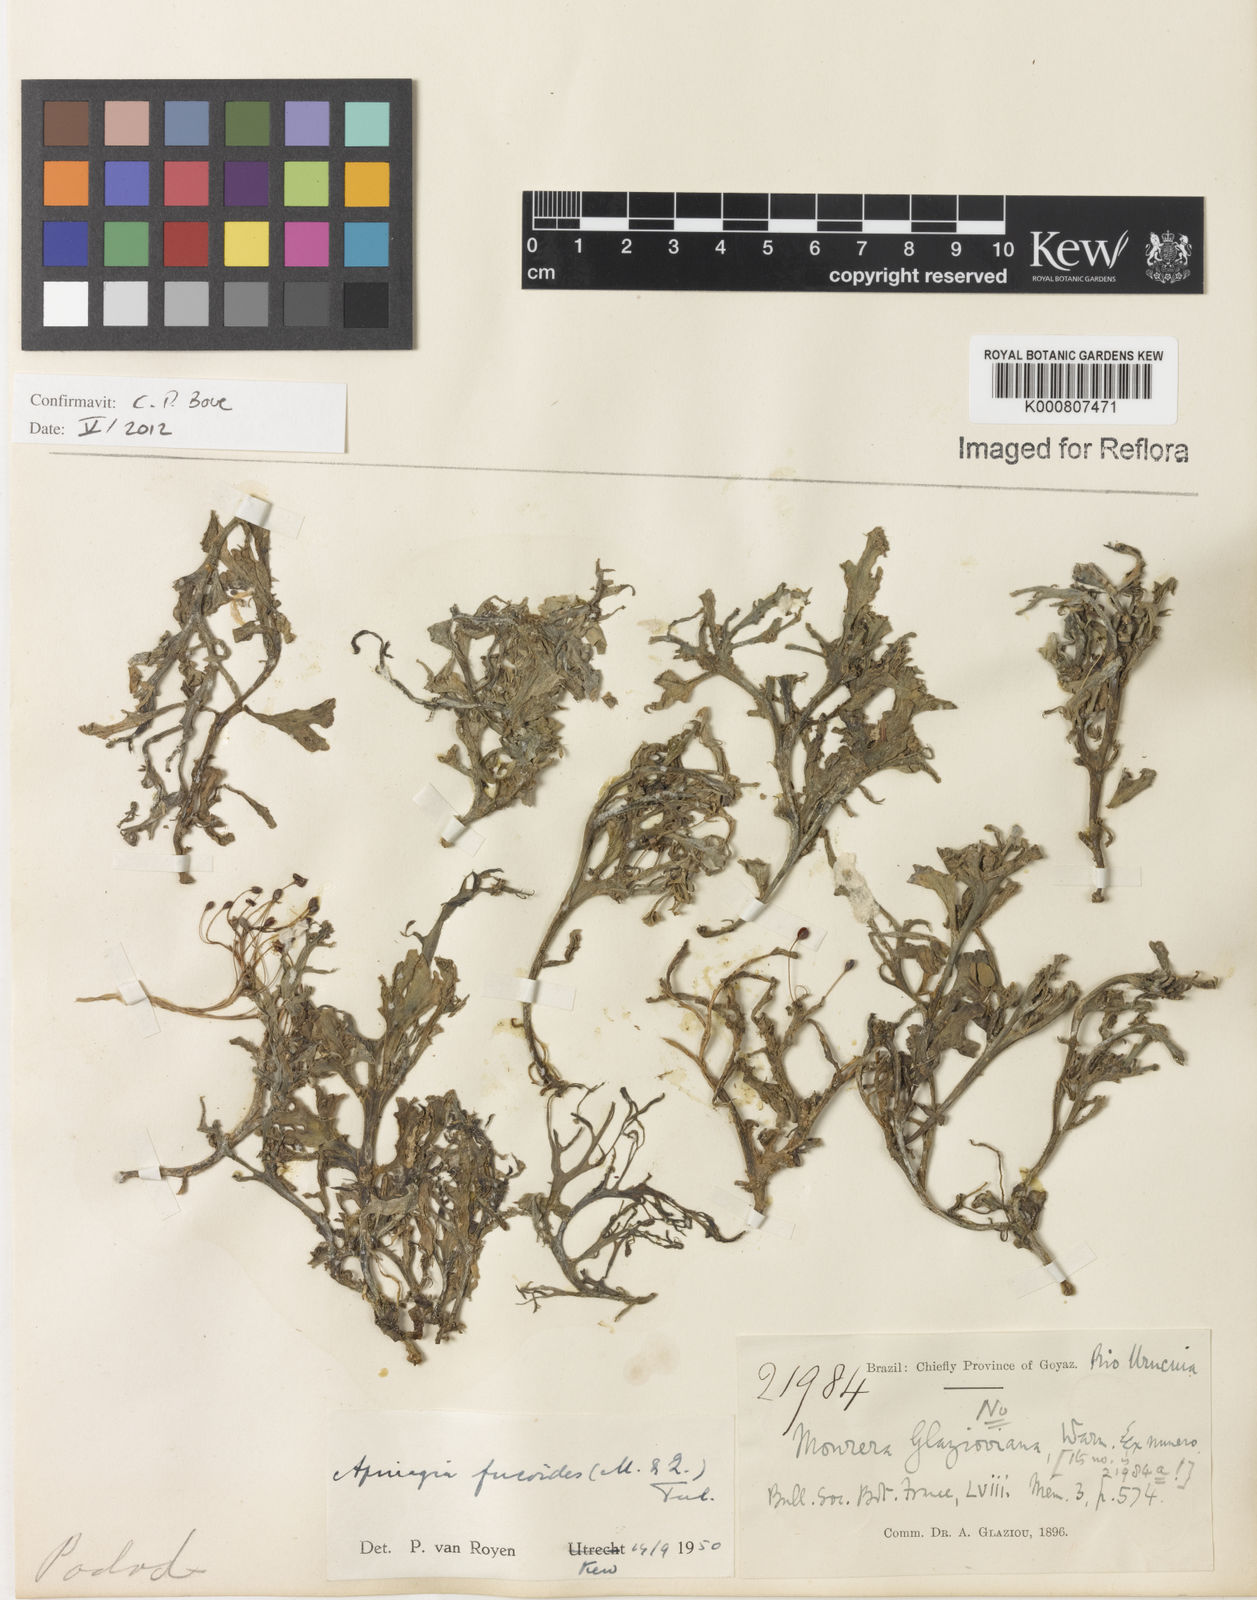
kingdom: Plantae
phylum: Tracheophyta
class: Magnoliopsida
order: Malpighiales
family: Podostemaceae
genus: Apinagia
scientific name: Apinagia fucoides
